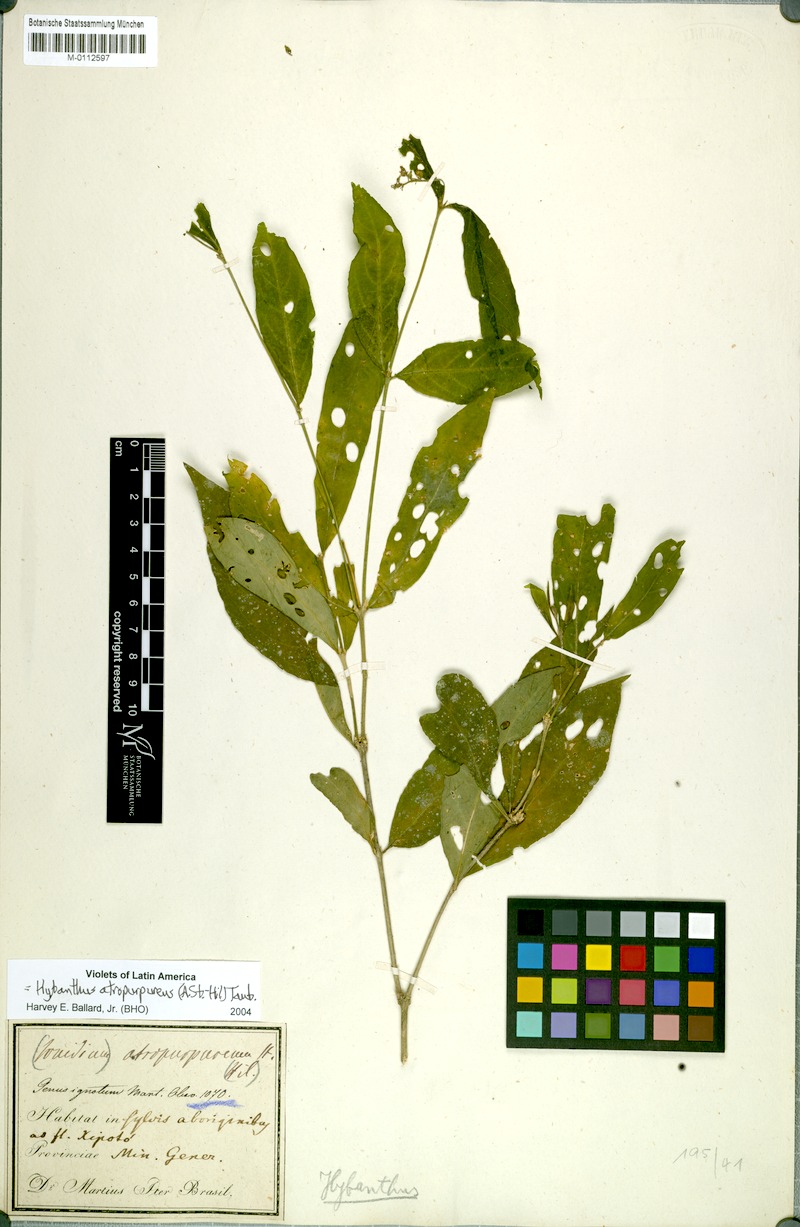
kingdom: Plantae
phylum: Tracheophyta
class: Magnoliopsida
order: Malpighiales
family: Violaceae
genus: Pombalia
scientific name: Pombalia atropurpurea
